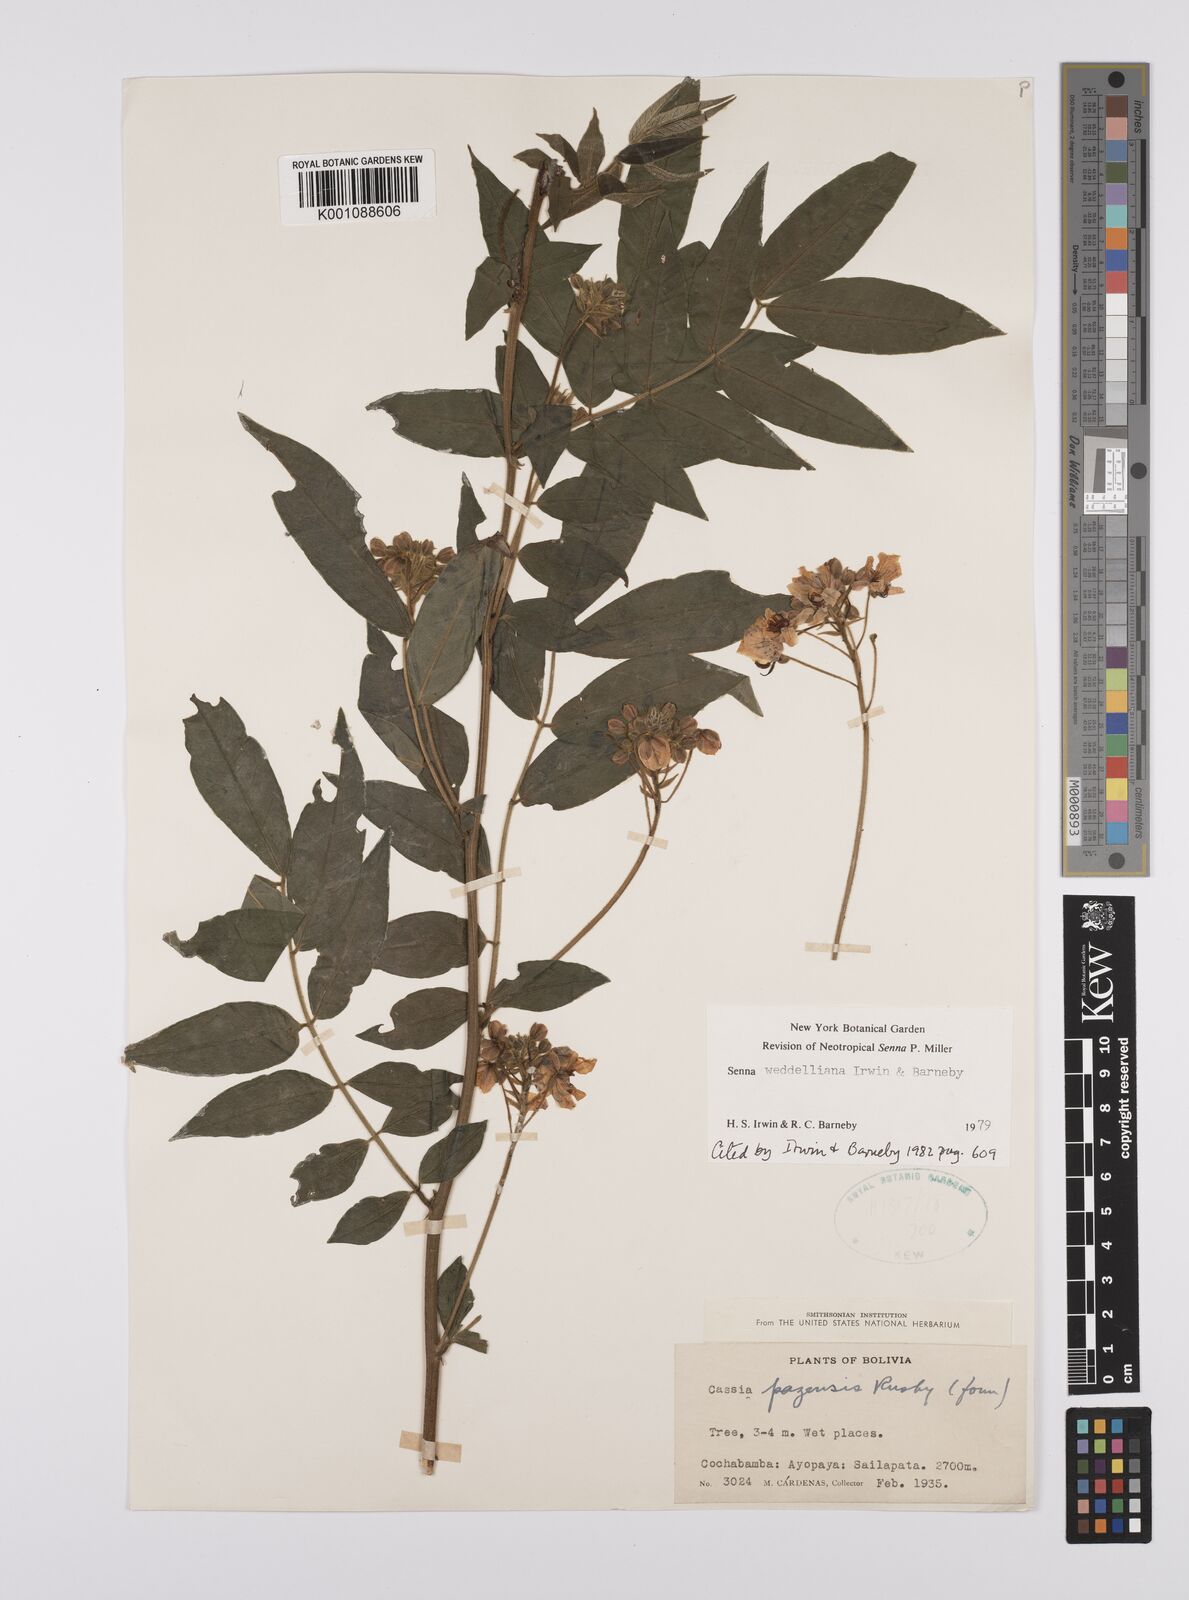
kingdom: Plantae
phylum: Tracheophyta
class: Magnoliopsida
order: Fabales
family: Fabaceae
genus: Senna
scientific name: Senna weddelliana
